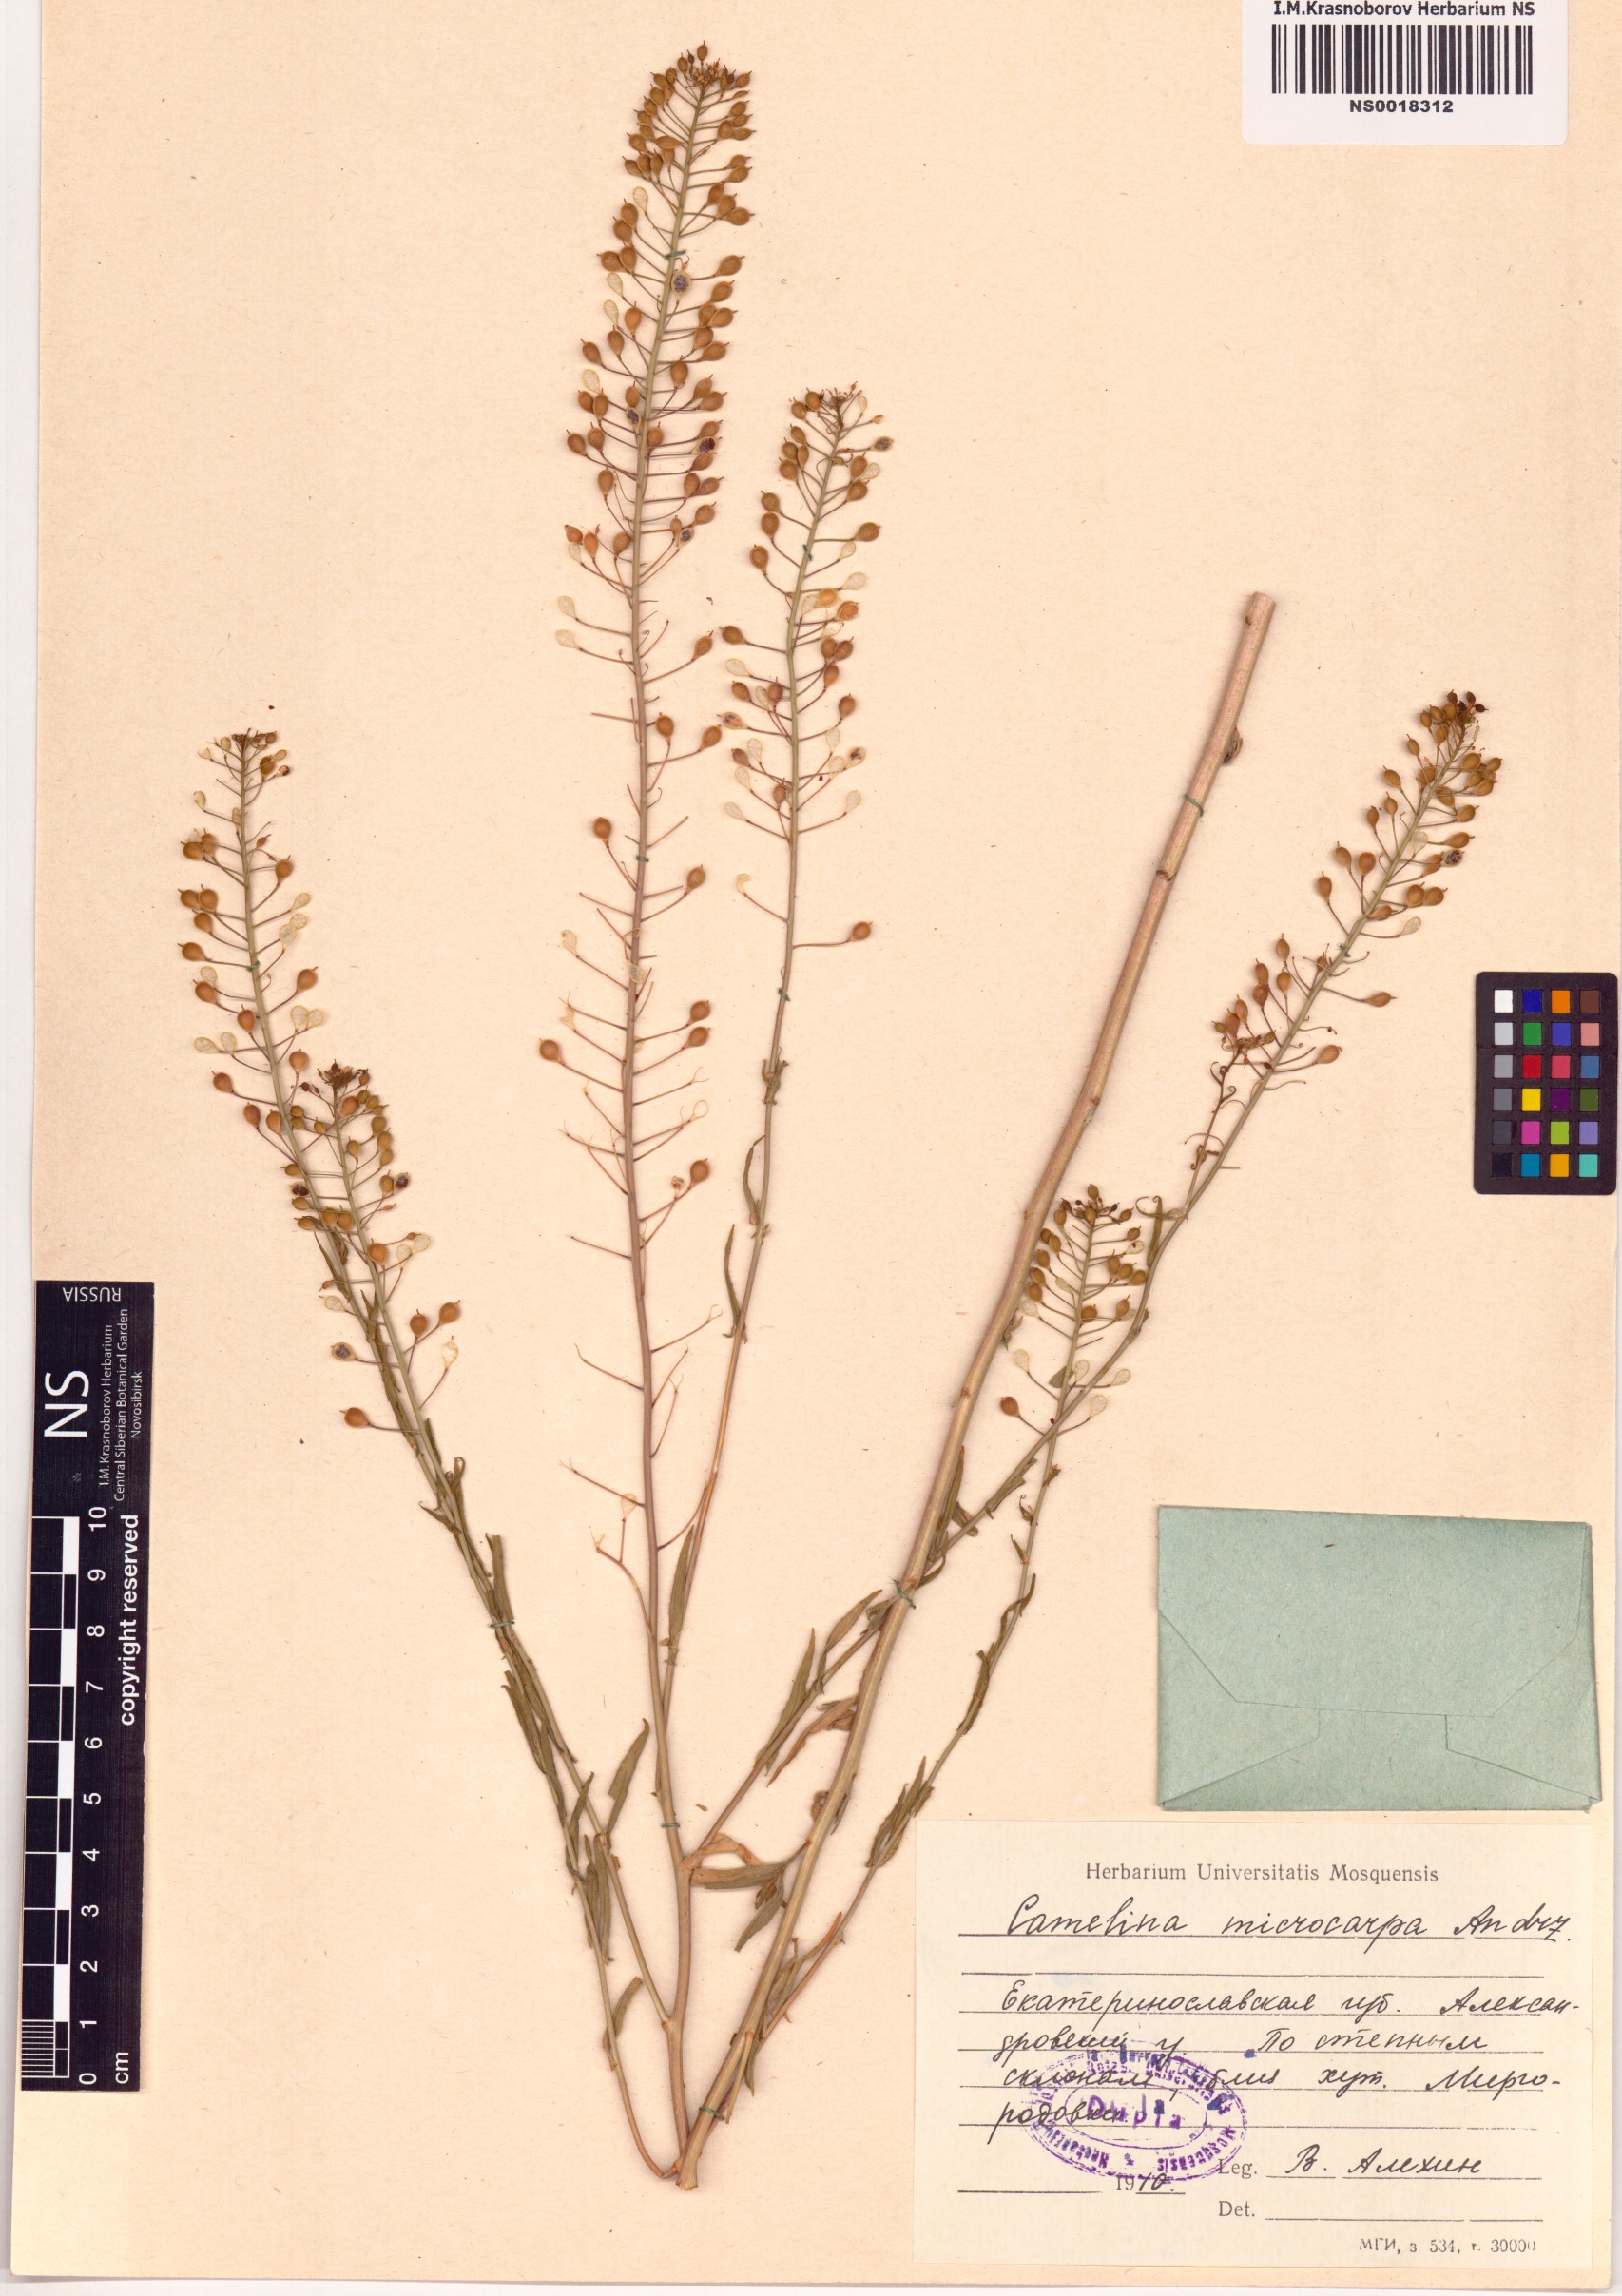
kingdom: Plantae
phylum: Tracheophyta
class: Magnoliopsida
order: Brassicales
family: Brassicaceae
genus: Camelina
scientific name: Camelina microcarpa
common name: Lesser gold-of-pleasure
